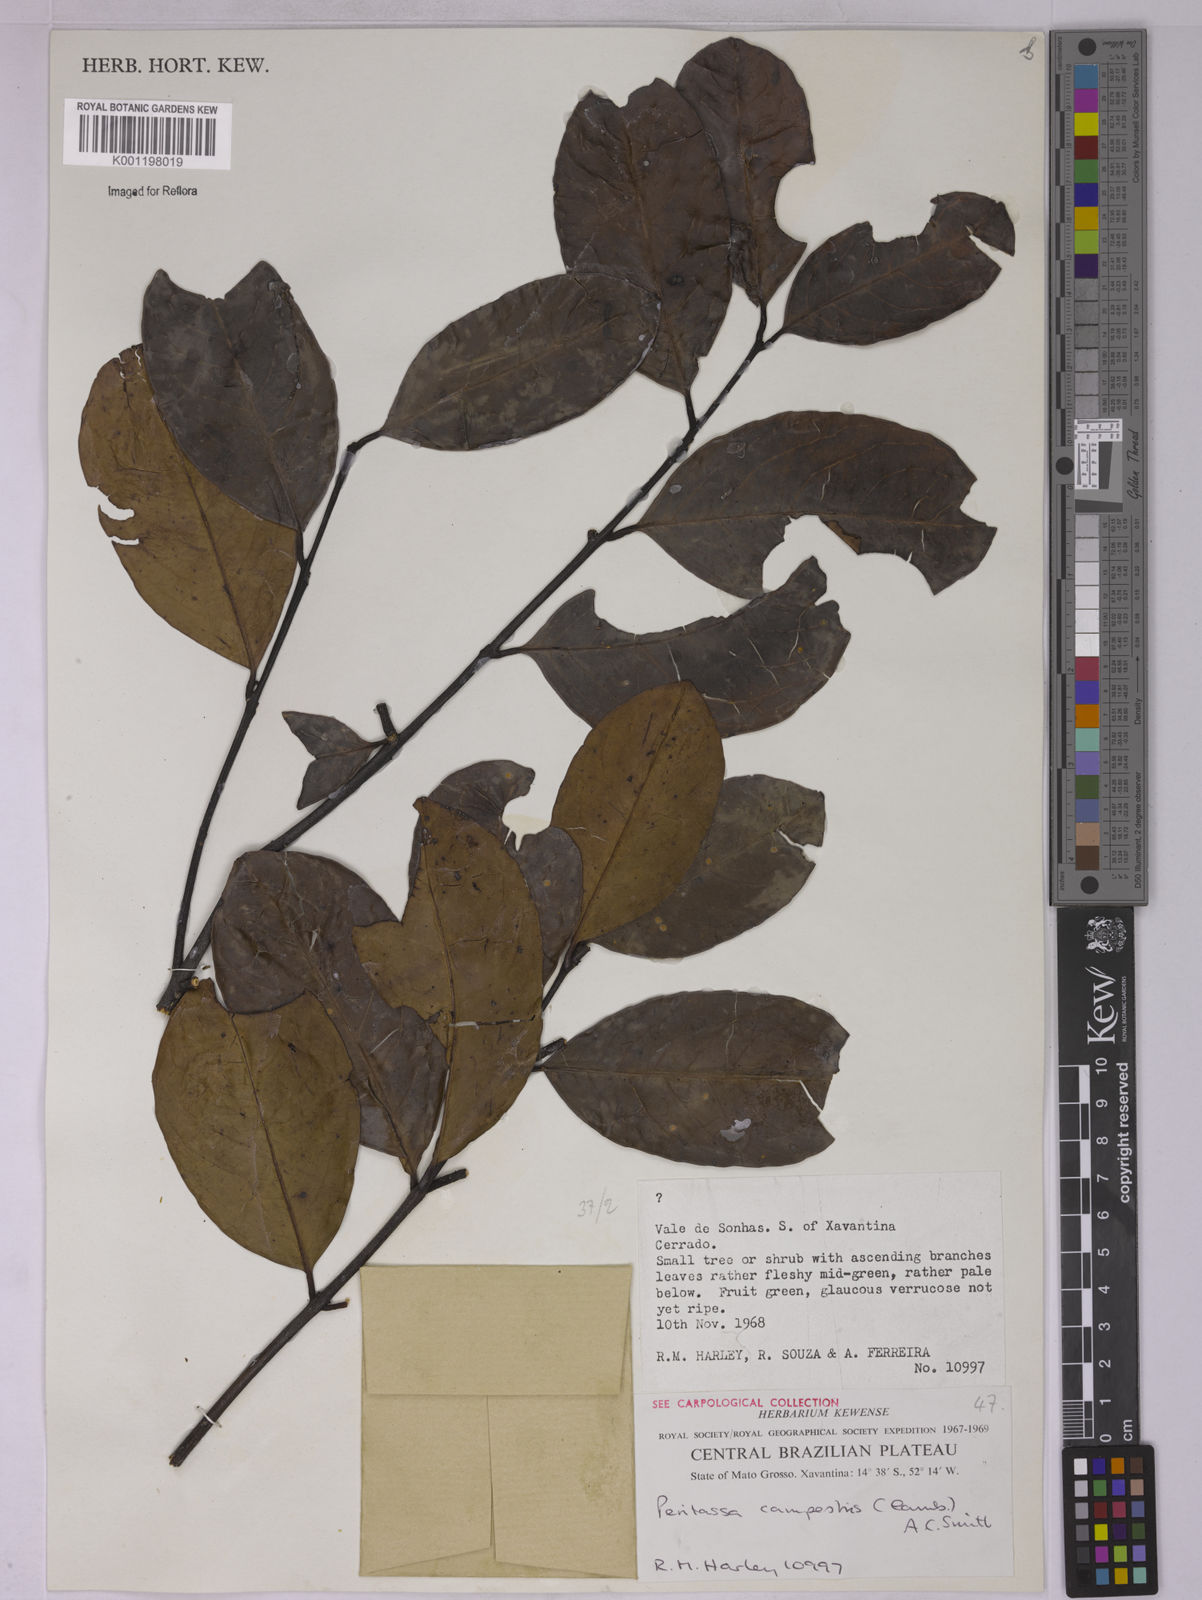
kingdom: Plantae
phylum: Tracheophyta
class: Magnoliopsida
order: Celastrales
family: Celastraceae
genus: Peritassa
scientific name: Peritassa campestris
